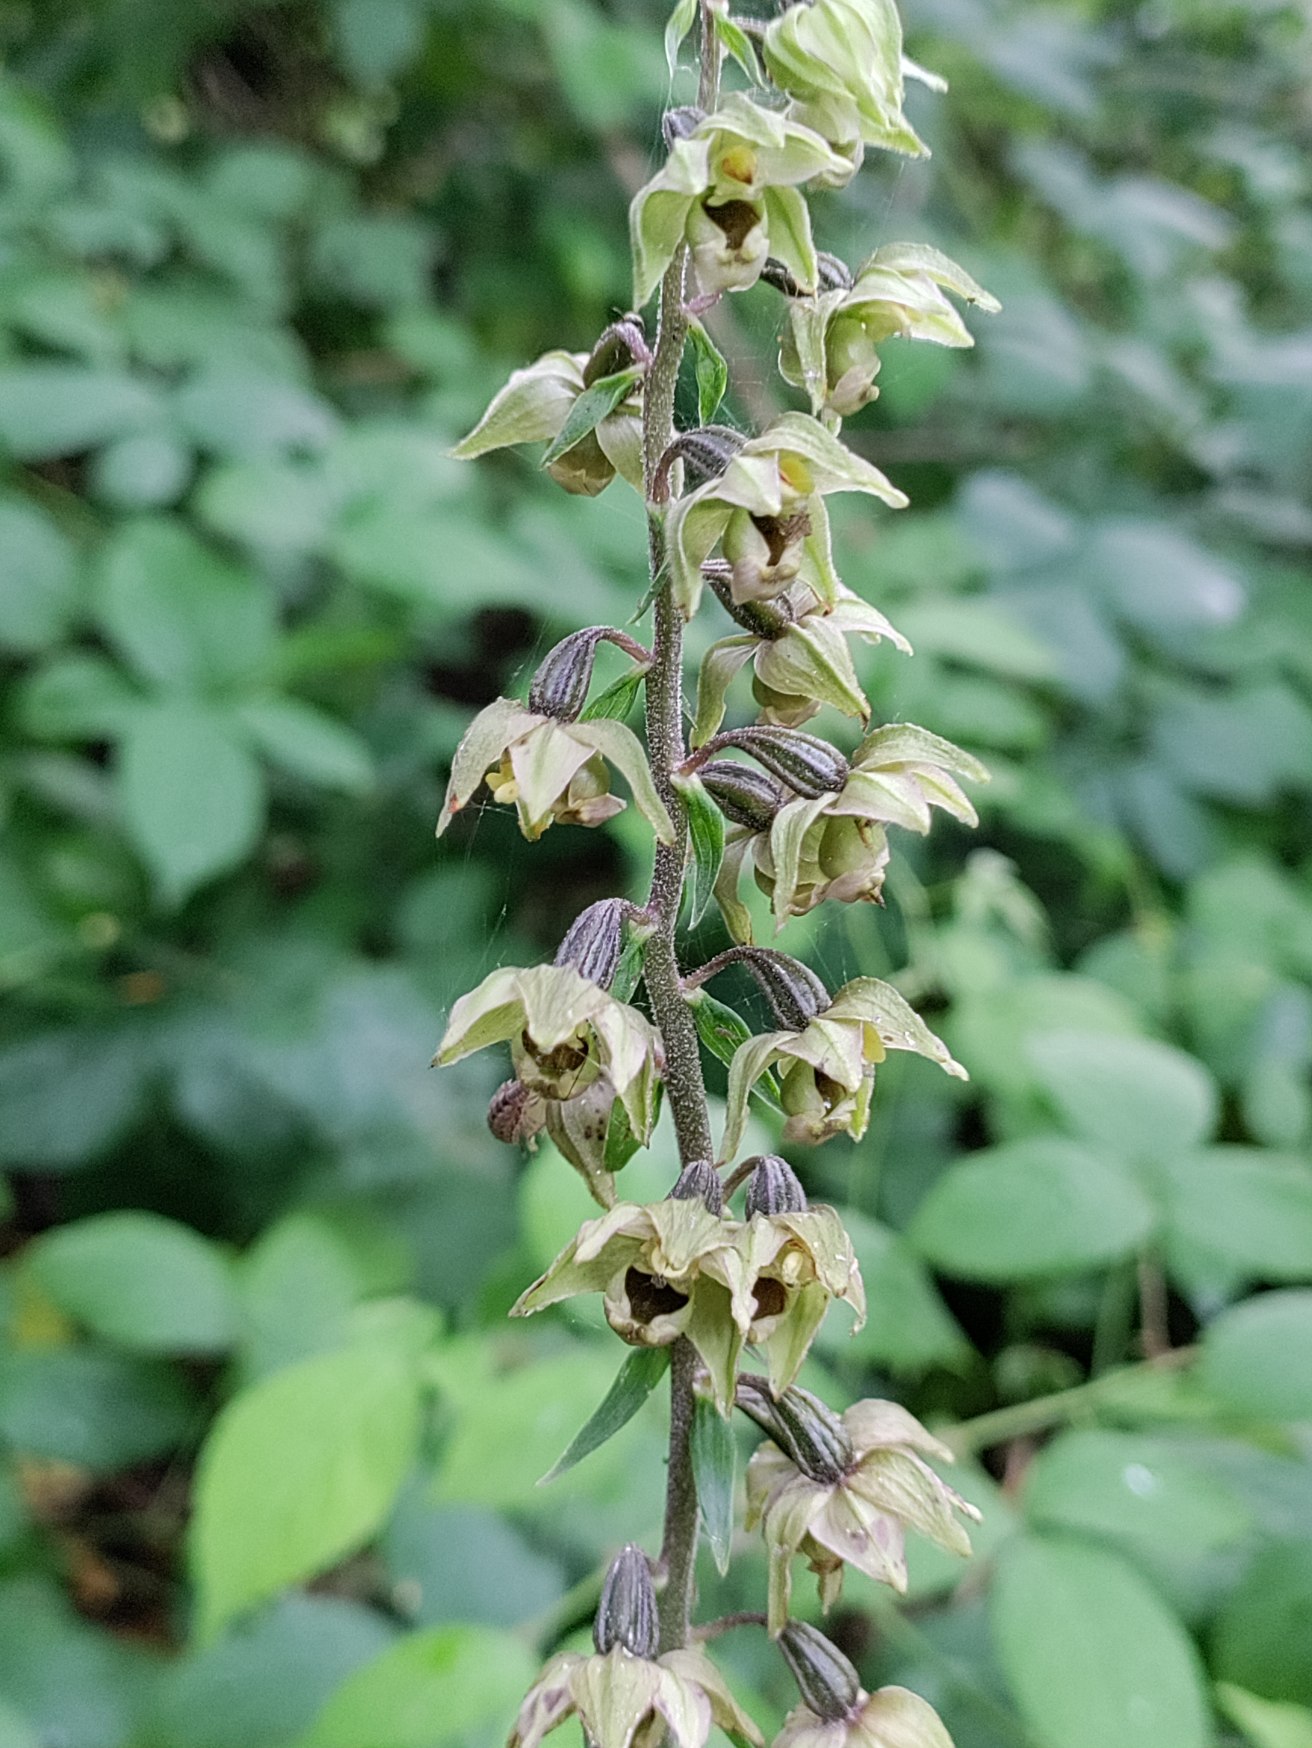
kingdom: Plantae
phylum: Tracheophyta
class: Liliopsida
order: Asparagales
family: Orchidaceae
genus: Epipactis
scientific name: Epipactis helleborine
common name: Skov-hullæbe
